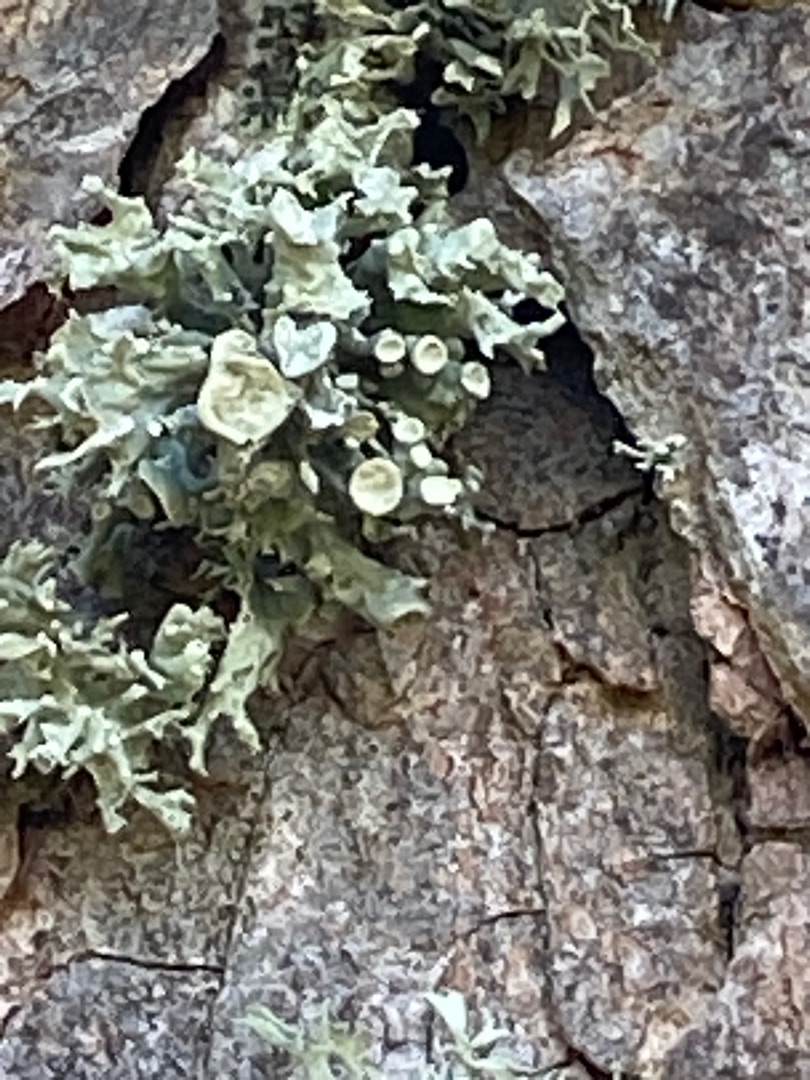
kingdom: Fungi
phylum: Ascomycota
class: Lecanoromycetes
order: Lecanorales
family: Ramalinaceae
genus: Ramalina
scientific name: Ramalina fastigiata
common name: Tue-grenlav
